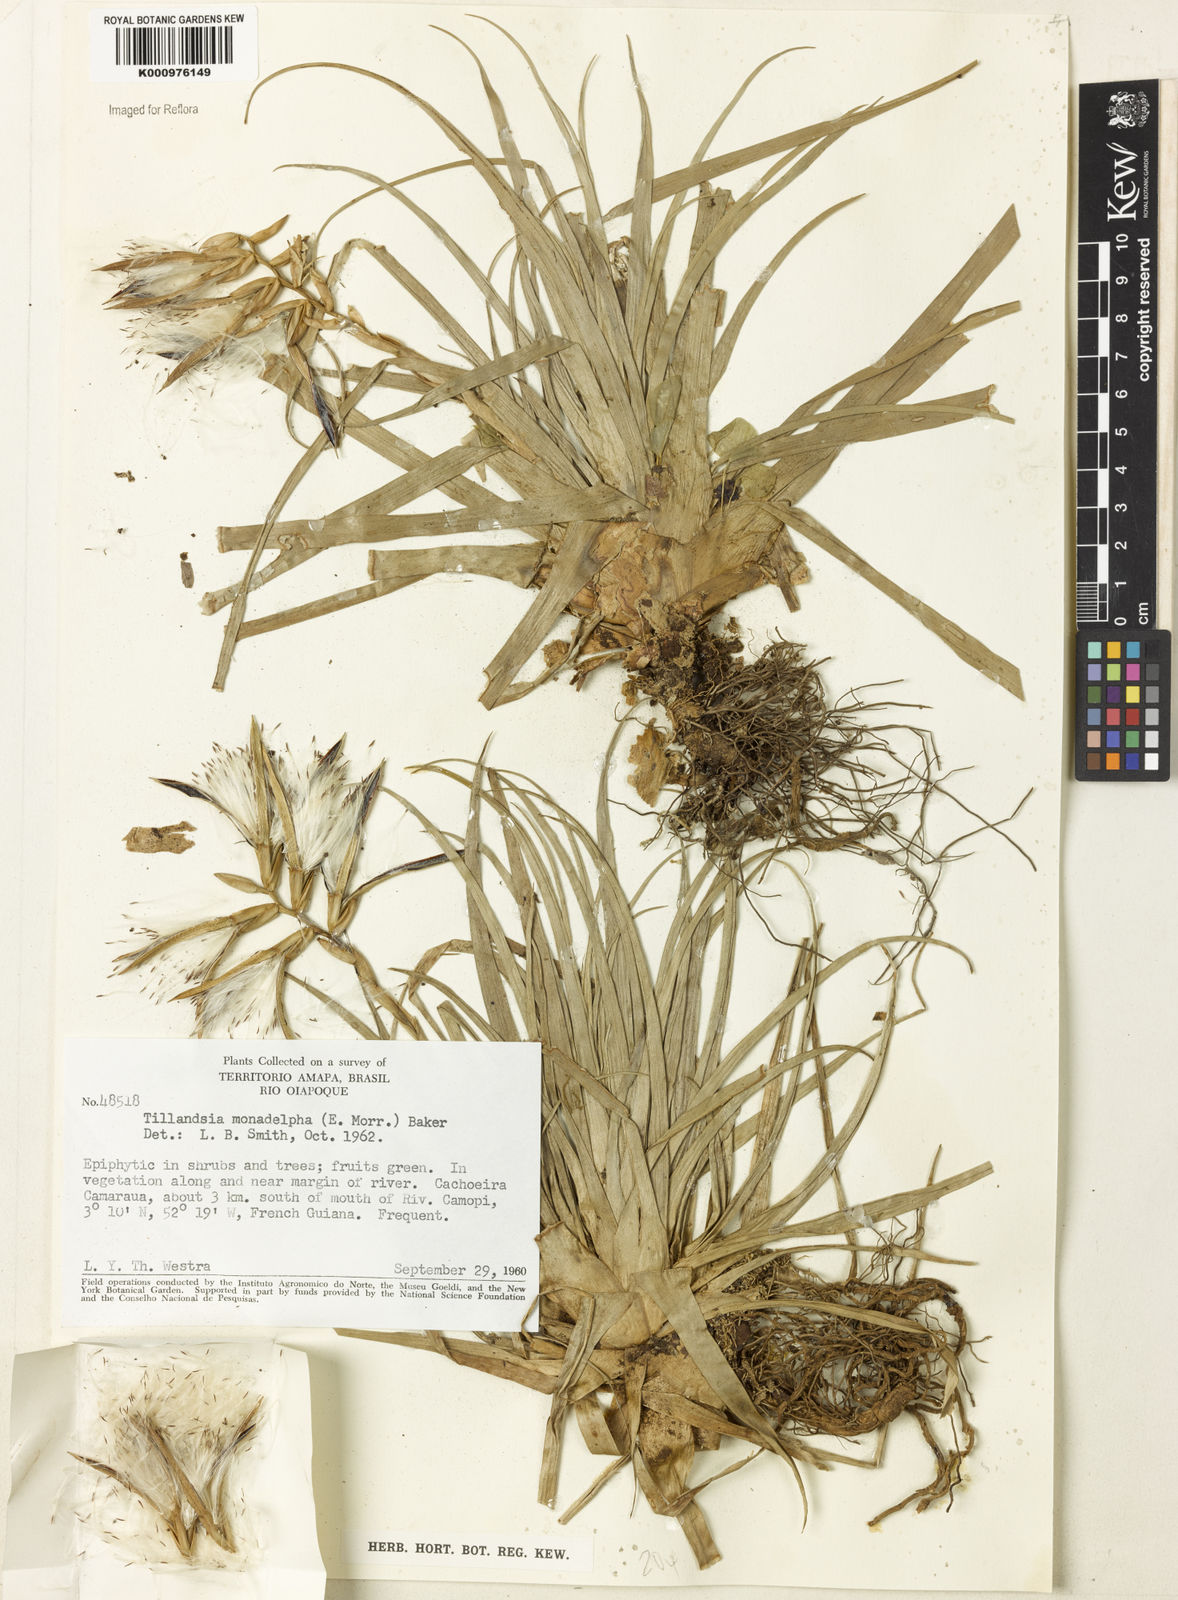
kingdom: Plantae
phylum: Tracheophyta
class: Liliopsida
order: Poales
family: Bromeliaceae
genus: Lemeltonia
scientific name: Lemeltonia monadelpha
